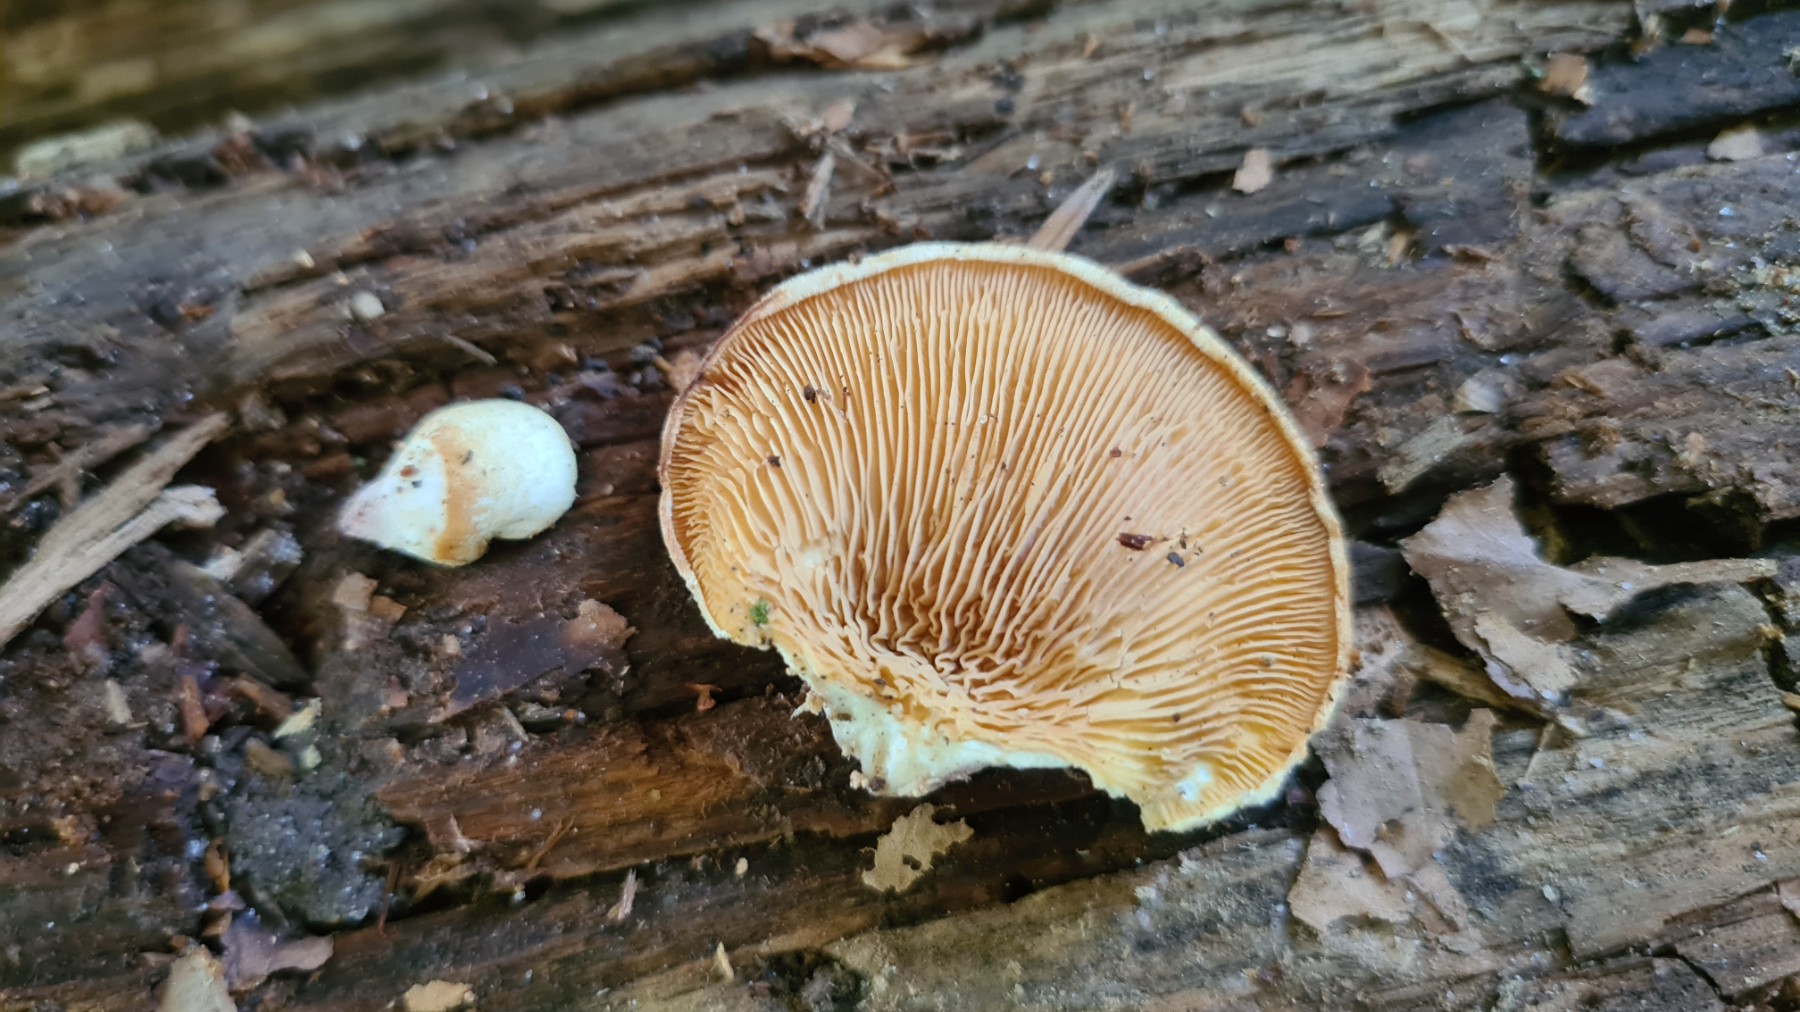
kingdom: Fungi
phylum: Basidiomycota
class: Agaricomycetes
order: Boletales
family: Tapinellaceae
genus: Tapinella
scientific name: Tapinella panuoides
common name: tømmer-viftesvamp
